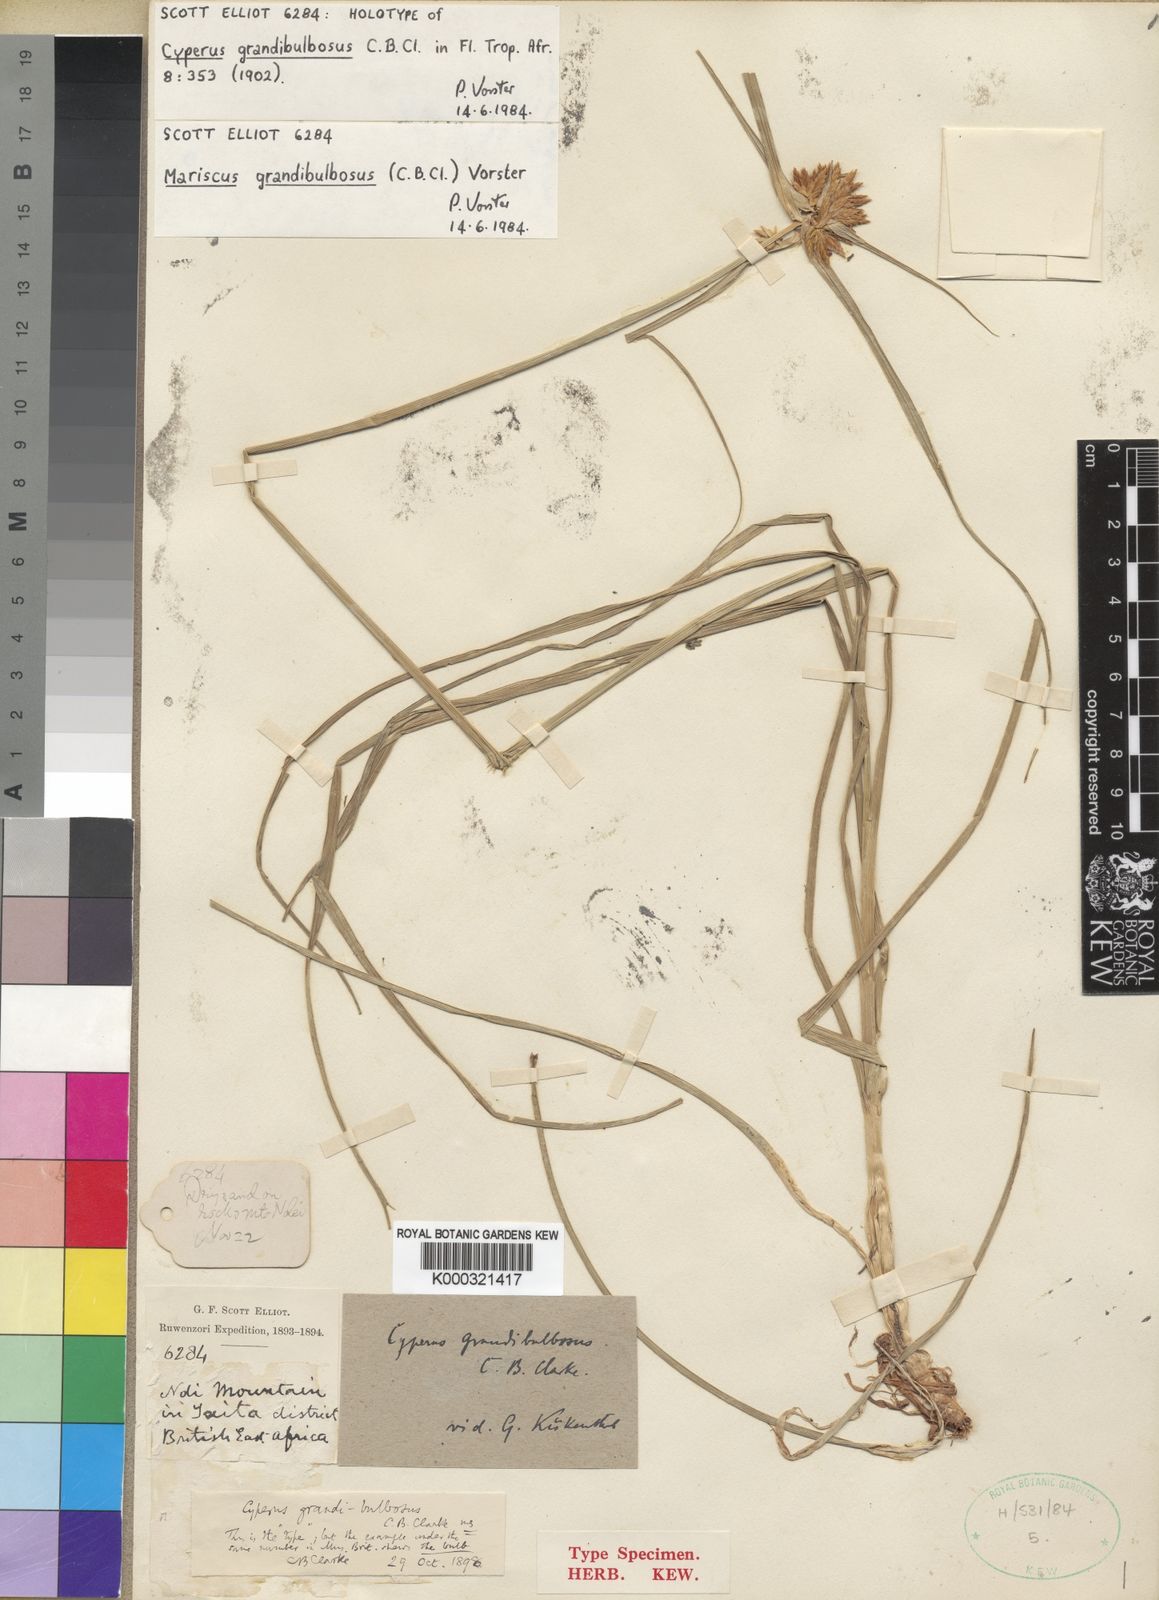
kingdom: Plantae
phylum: Tracheophyta
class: Liliopsida
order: Poales
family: Cyperaceae
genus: Cyperus
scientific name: Cyperus grandibulbosus
